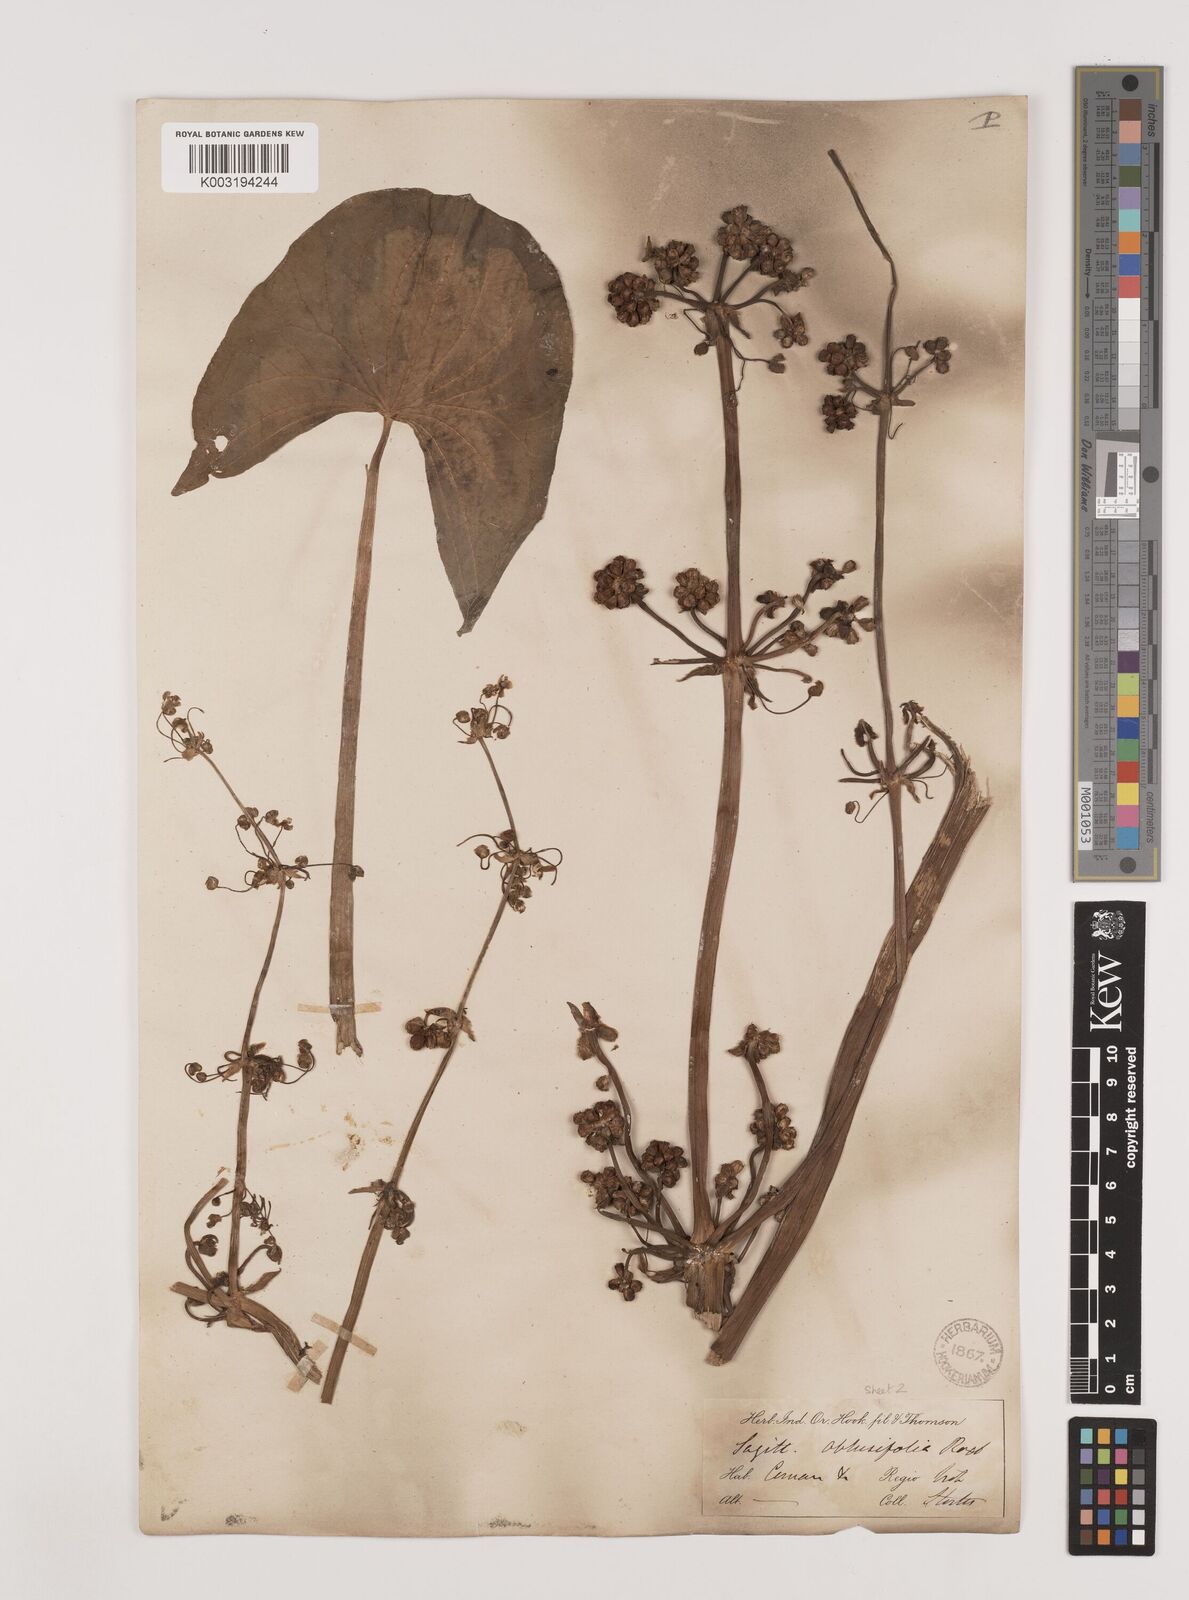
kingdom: Plantae
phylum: Tracheophyta
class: Liliopsida
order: Alismatales
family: Alismataceae
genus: Limnophyton
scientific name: Limnophyton obtusifolium
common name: Arrow head
